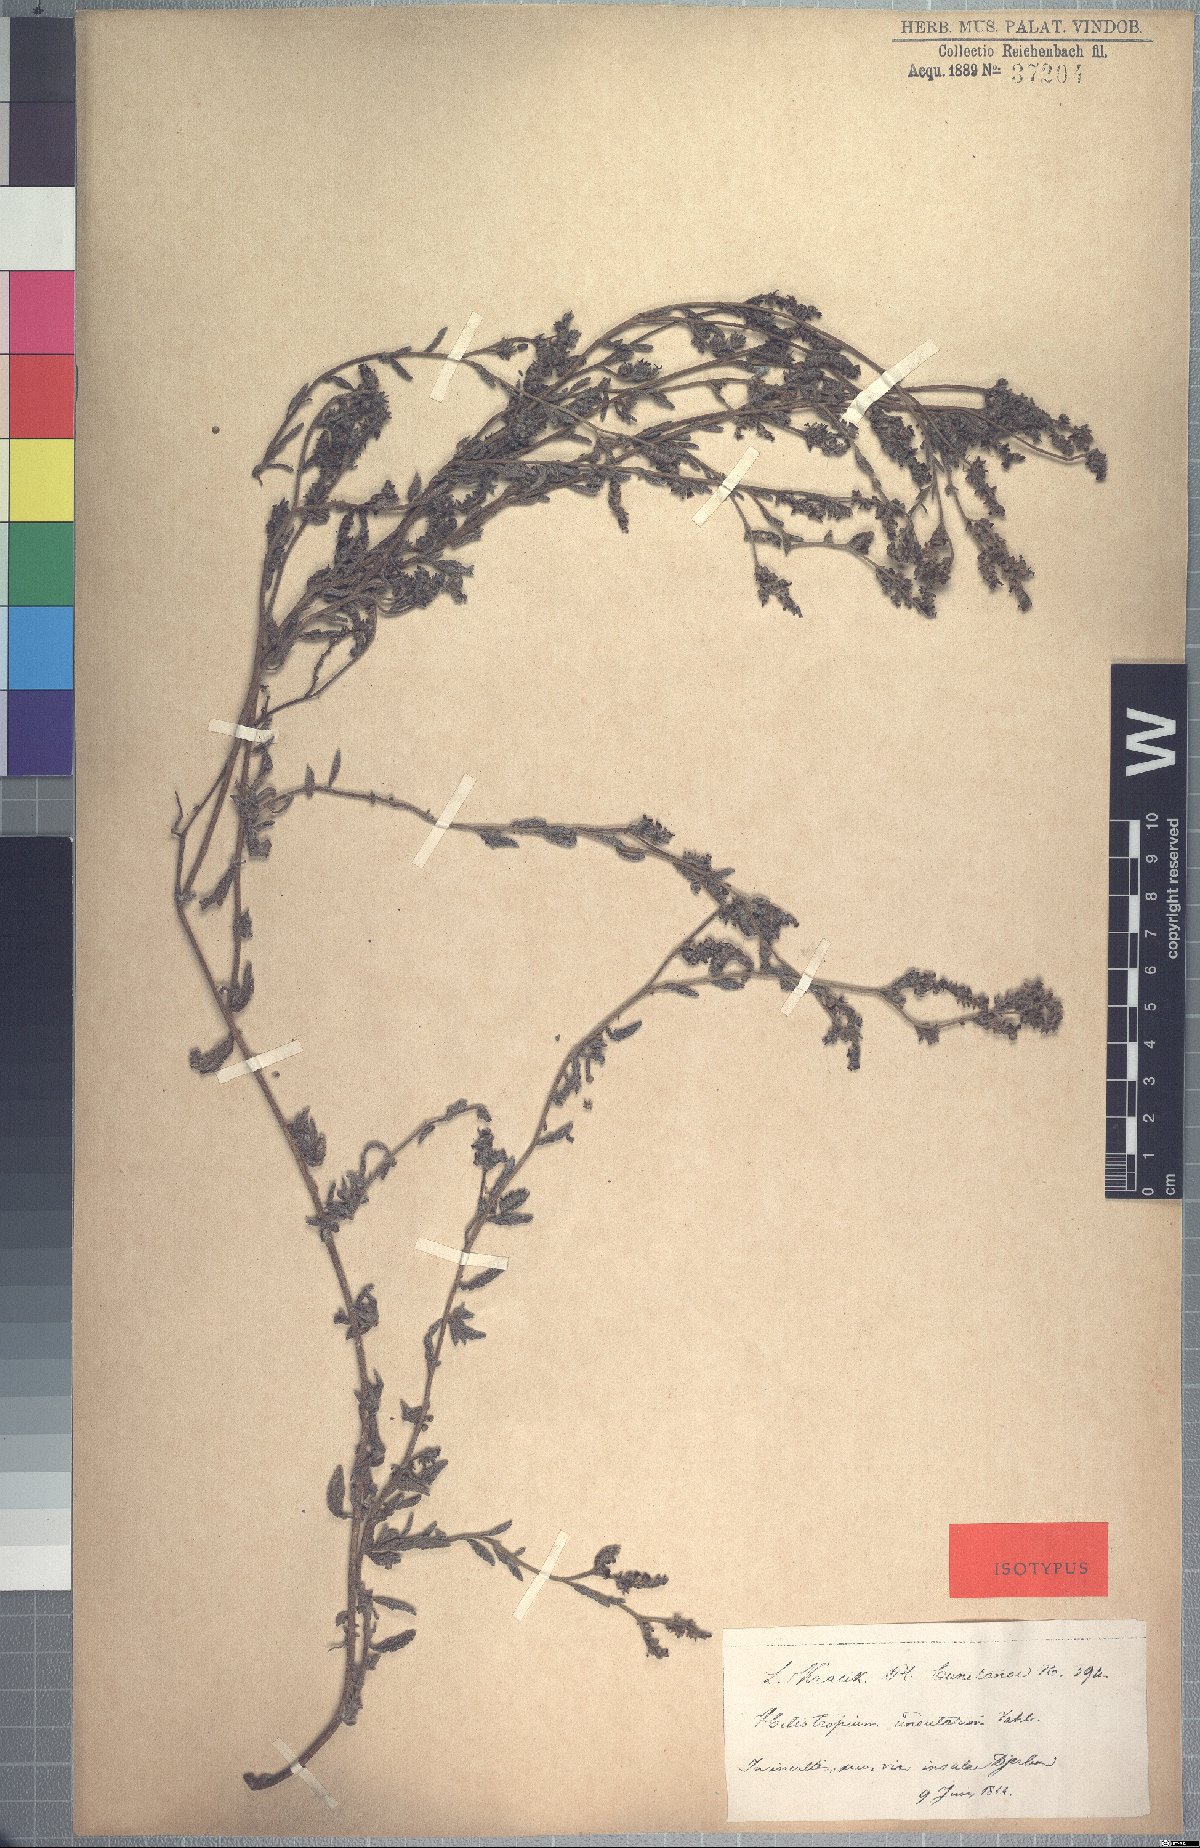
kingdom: Plantae
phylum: Tracheophyta
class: Magnoliopsida
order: Boraginales
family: Heliotropiaceae
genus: Heliotropium
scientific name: Heliotropium crispum
